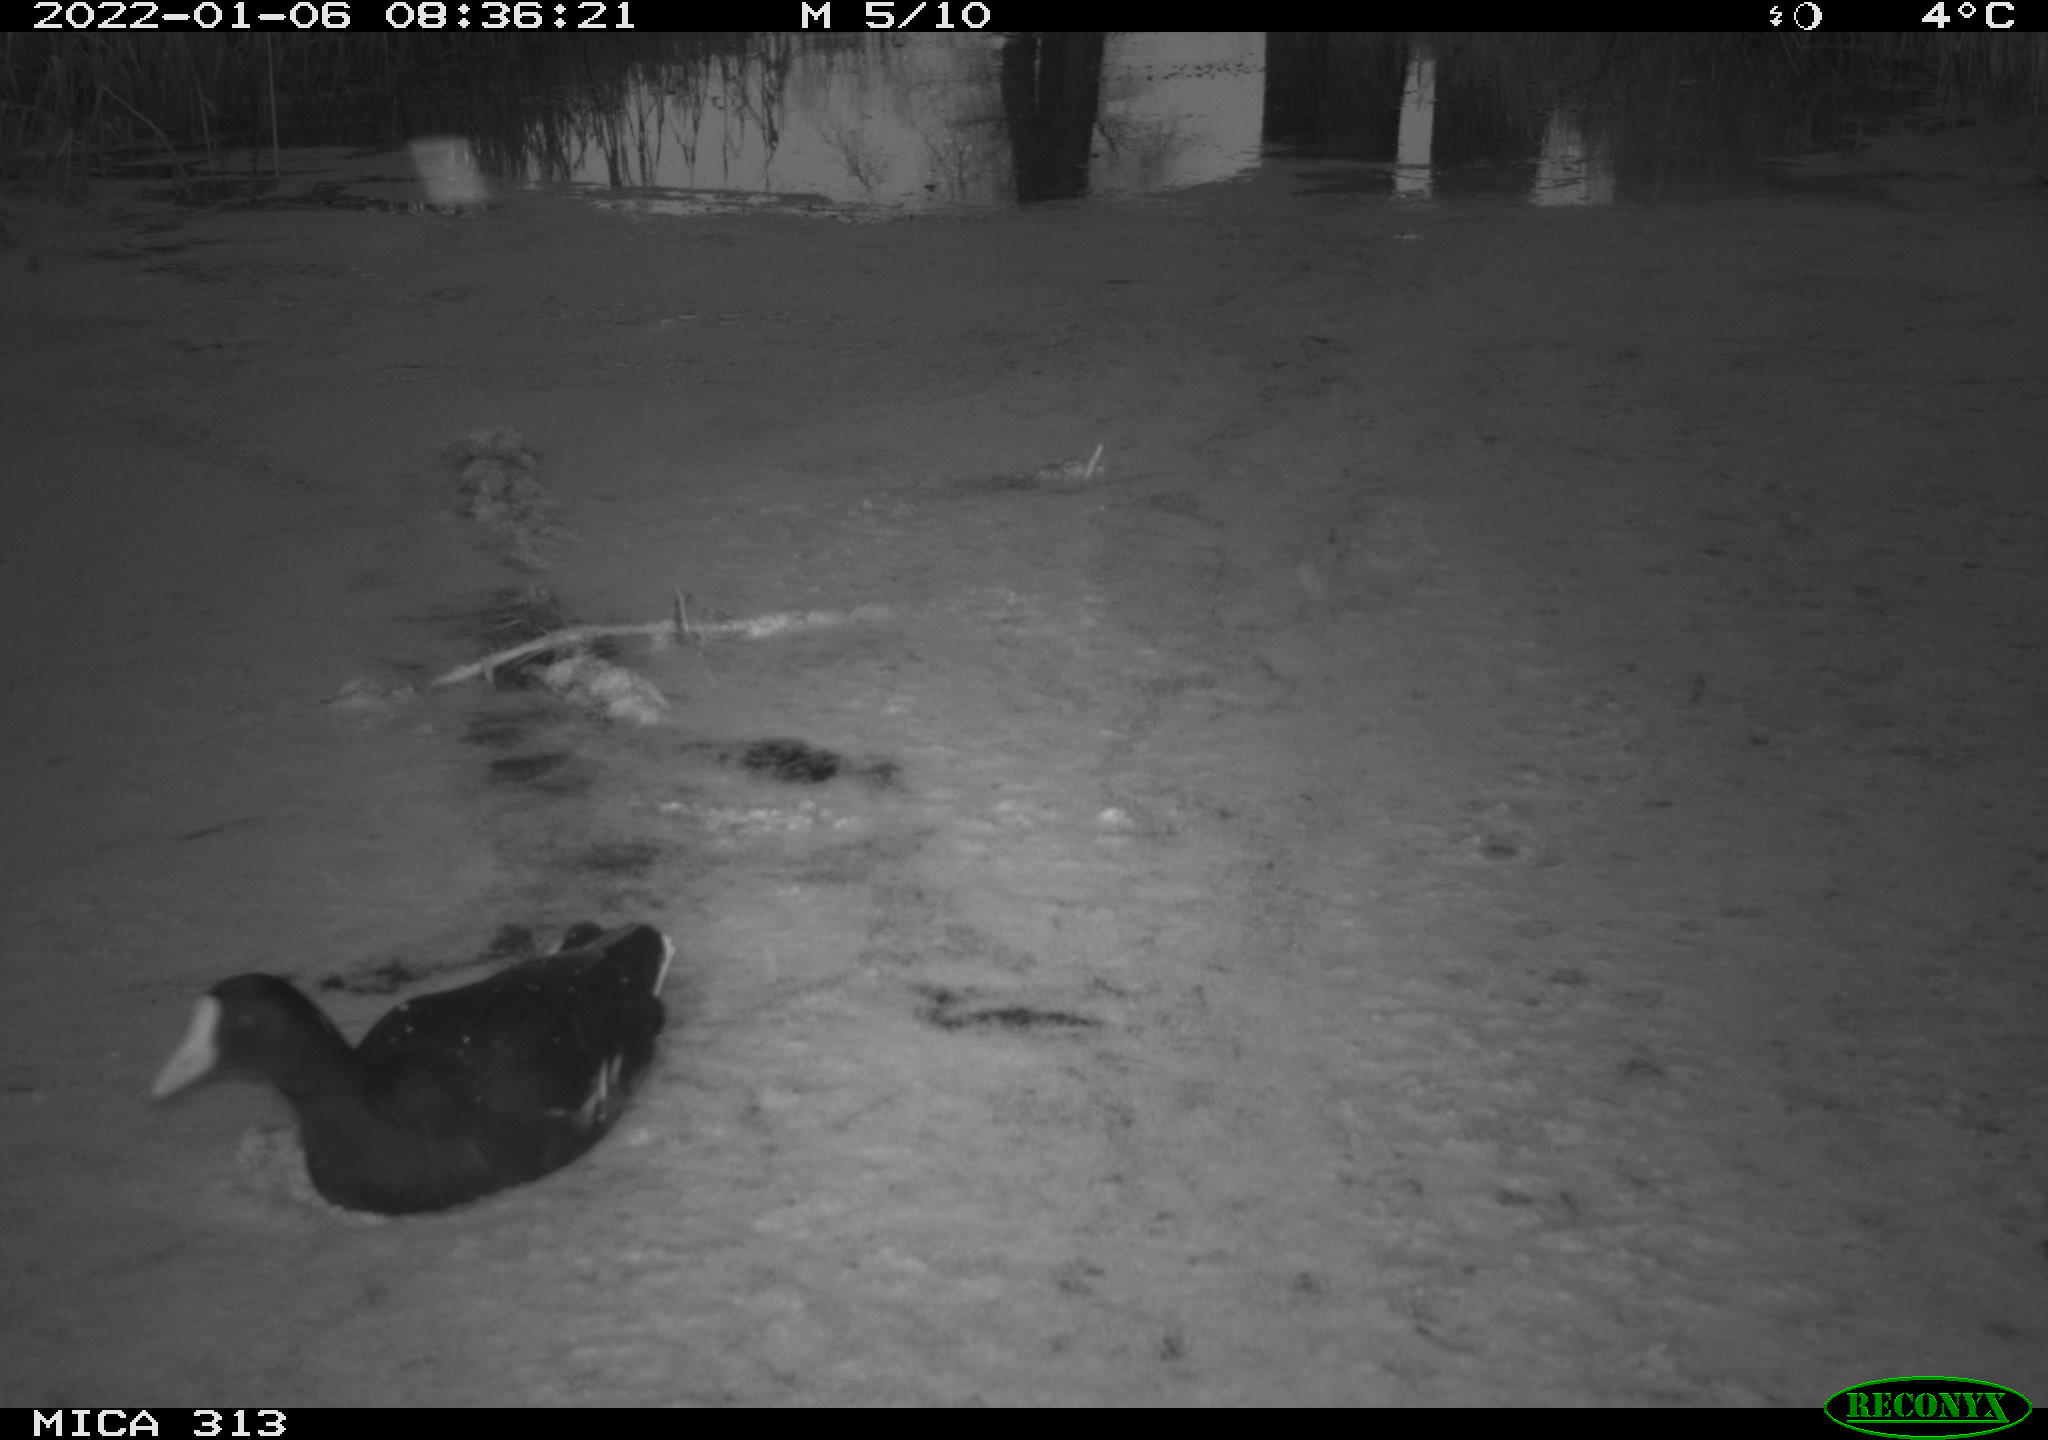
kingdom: Animalia
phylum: Chordata
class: Aves
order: Gruiformes
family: Rallidae
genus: Gallinula
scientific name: Gallinula chloropus
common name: Common moorhen
